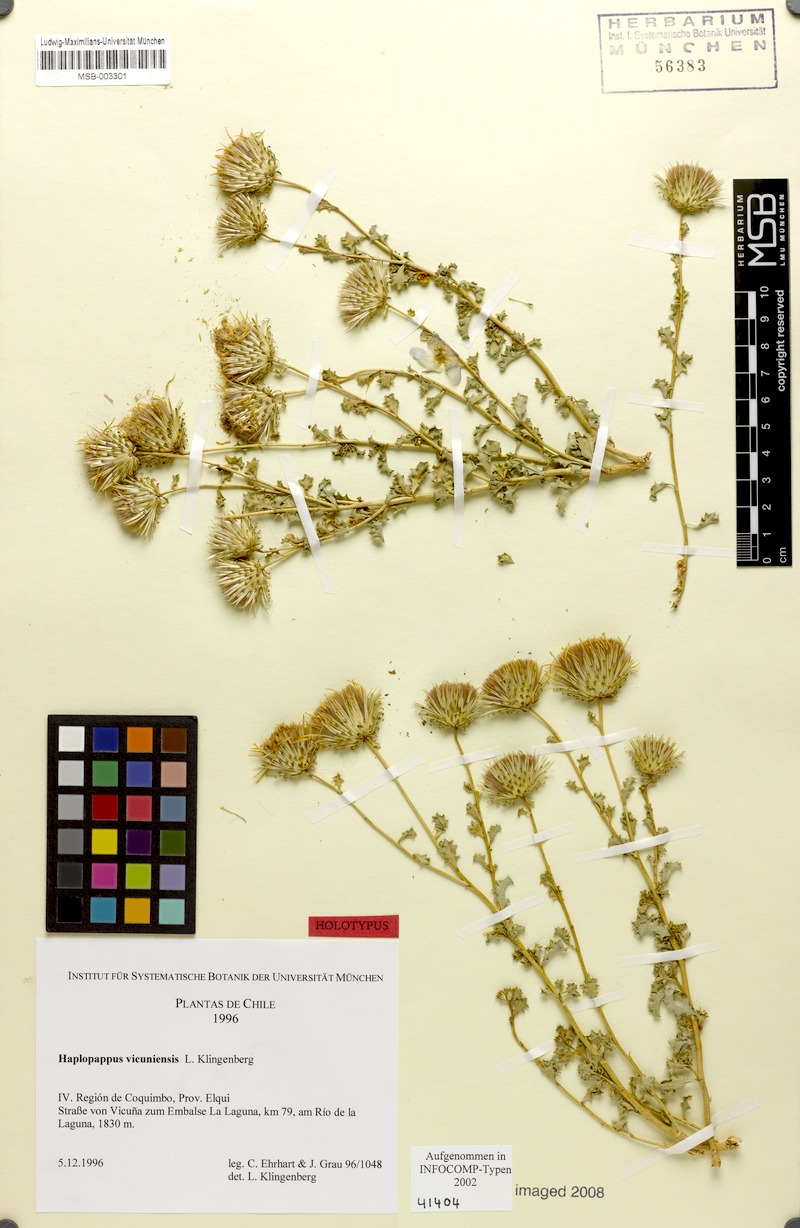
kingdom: Plantae
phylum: Tracheophyta
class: Magnoliopsida
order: Asterales
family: Asteraceae
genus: Haplopappus
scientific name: Haplopappus vicuniensis
